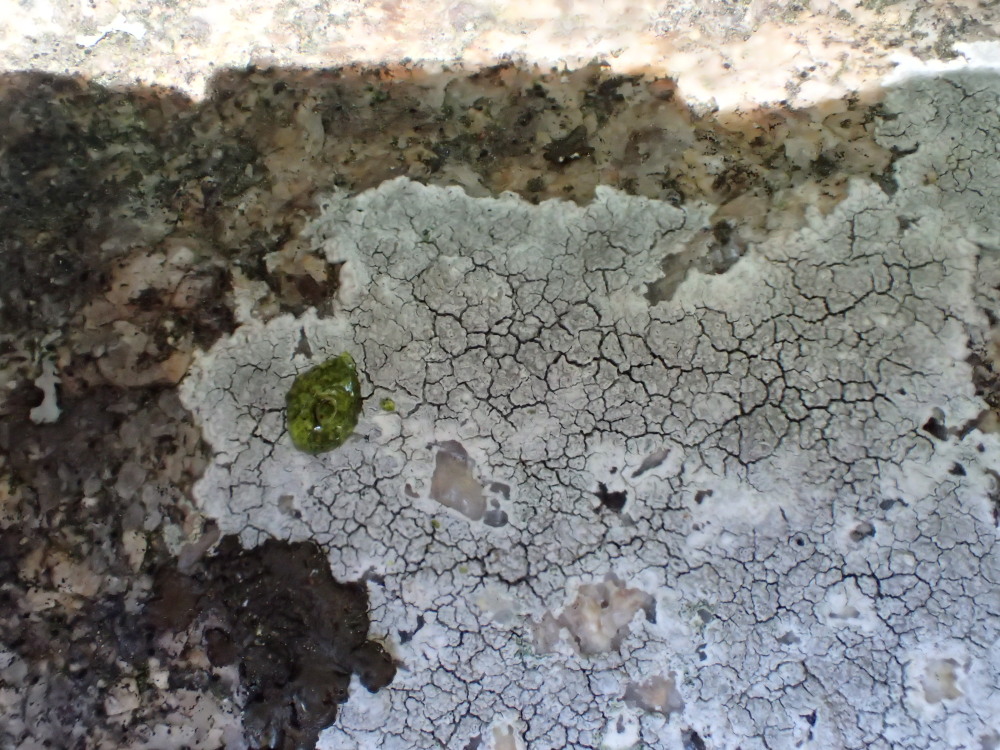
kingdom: Fungi
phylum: Ascomycota
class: Lecanoromycetes
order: Lecanorales
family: Lecanoraceae
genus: Glaucomaria
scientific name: Glaucomaria rupicola
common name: stengærde-kantskivelav
